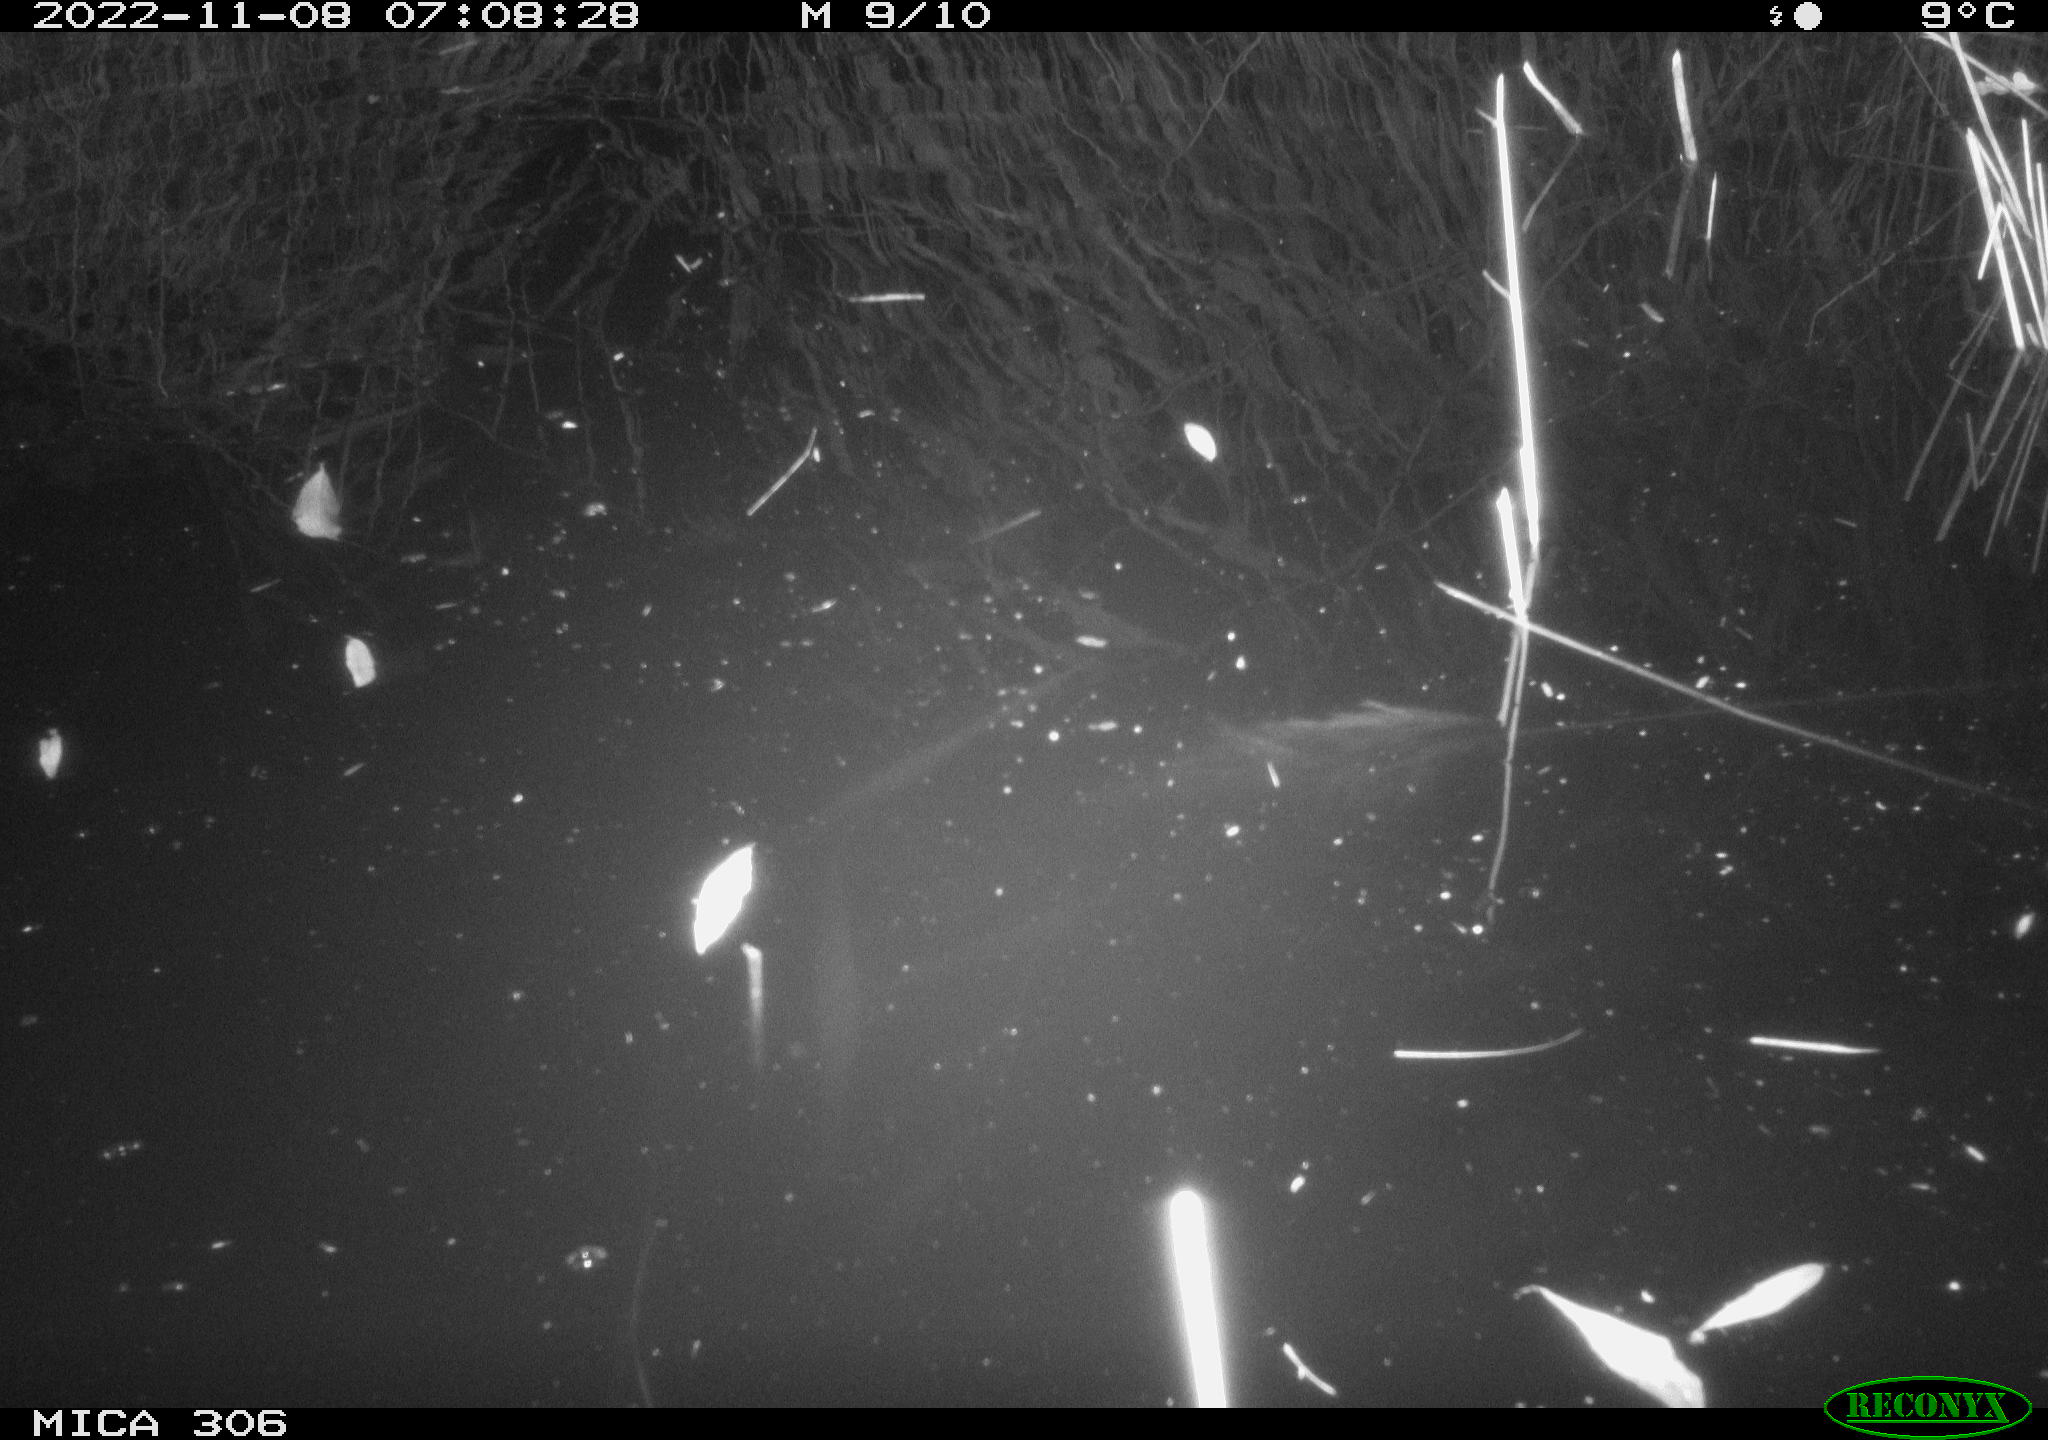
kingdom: Animalia
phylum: Chordata
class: Mammalia
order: Rodentia
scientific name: Rodentia
